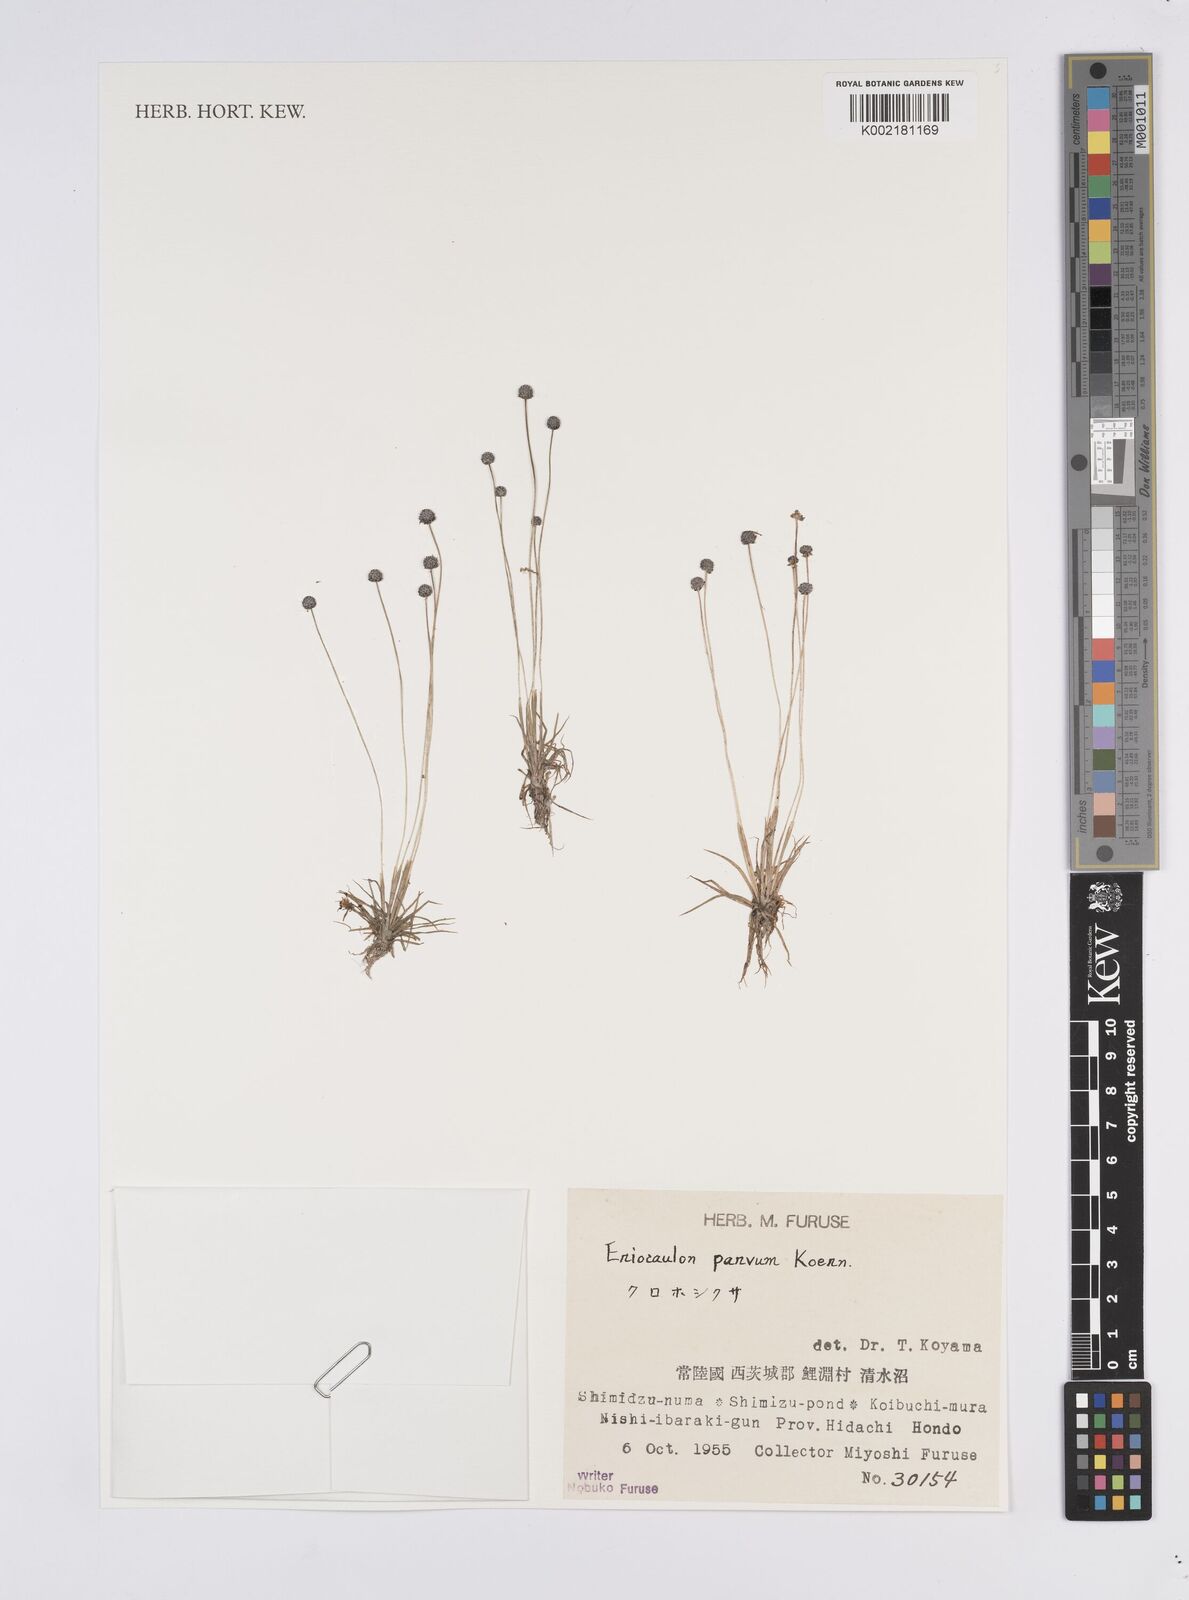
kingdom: Plantae
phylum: Tracheophyta
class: Liliopsida
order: Poales
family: Eriocaulaceae
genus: Eriocaulon
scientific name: Eriocaulon parvum
